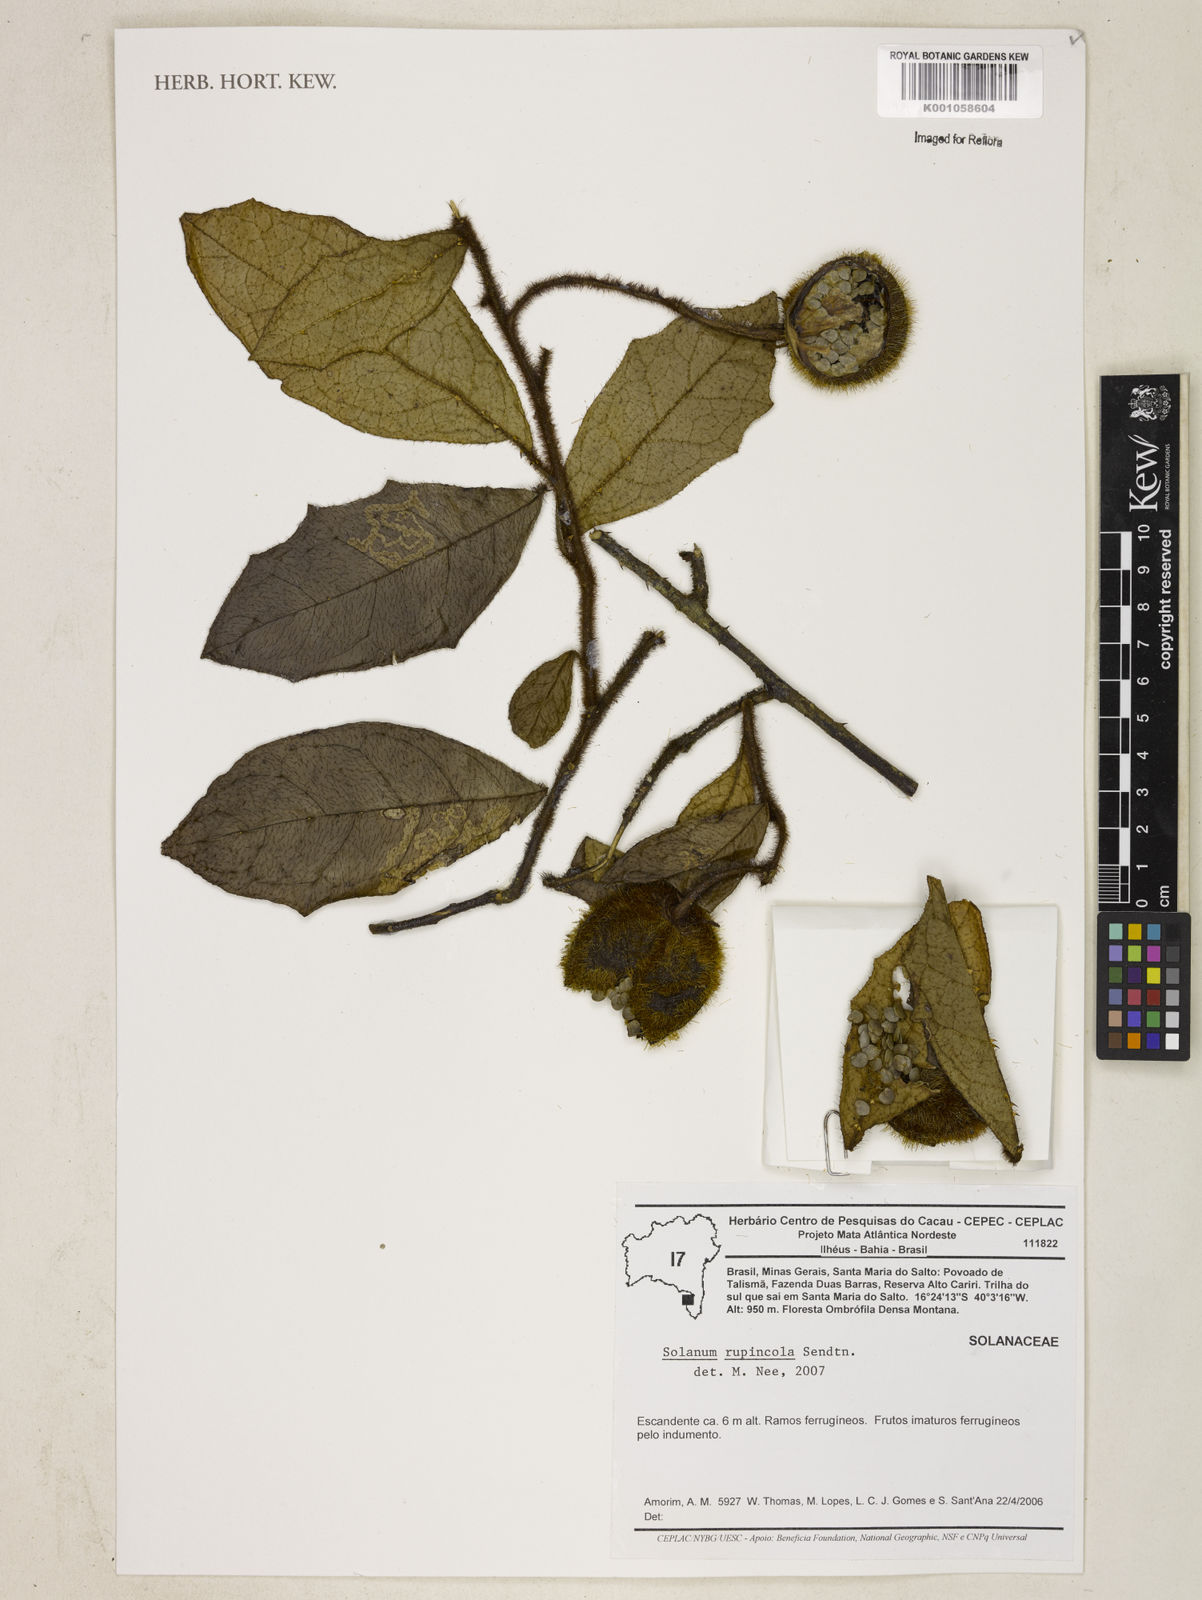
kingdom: Plantae
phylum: Tracheophyta
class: Magnoliopsida
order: Solanales
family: Solanaceae
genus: Solanum
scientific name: Solanum rupincola
